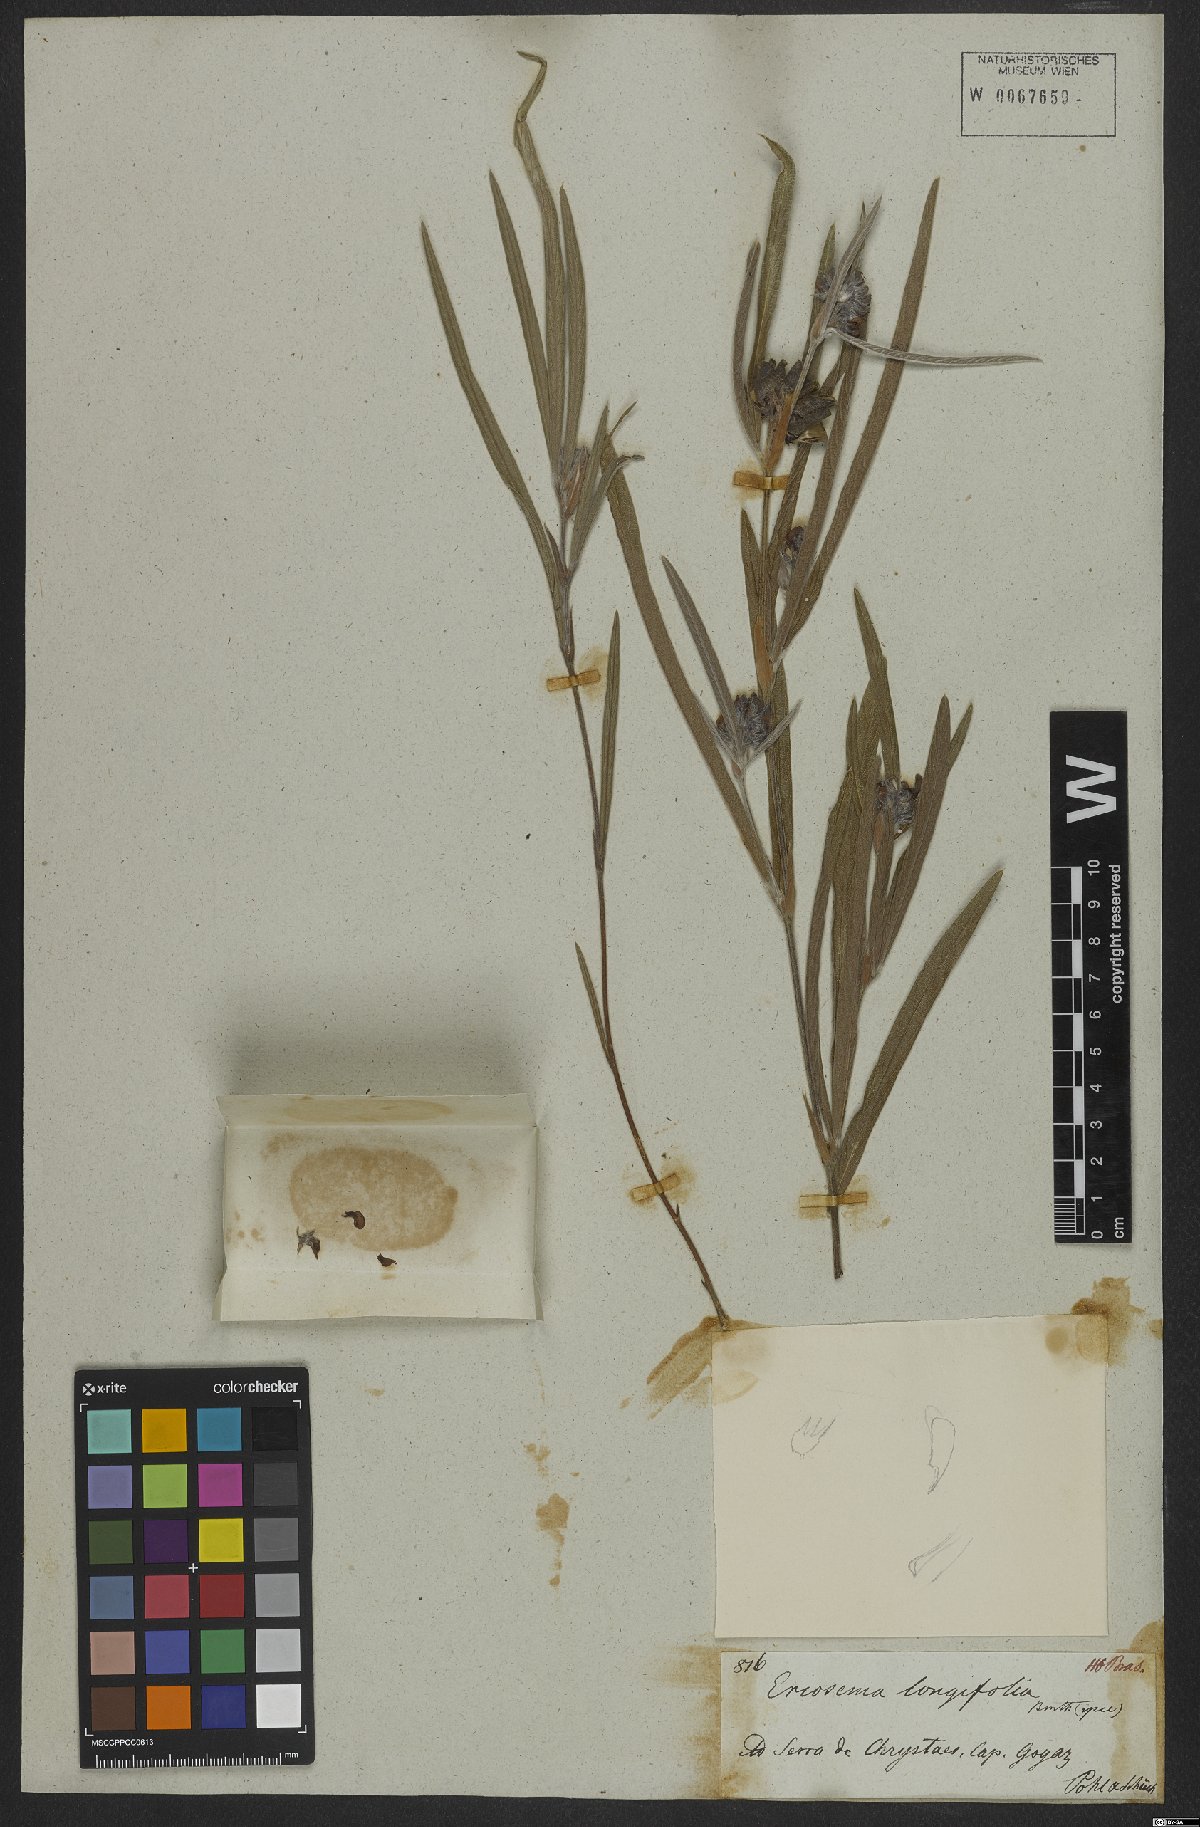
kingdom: Plantae
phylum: Tracheophyta
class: Magnoliopsida
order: Fabales
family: Fabaceae
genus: Eriosema
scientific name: Eriosema longifolium
